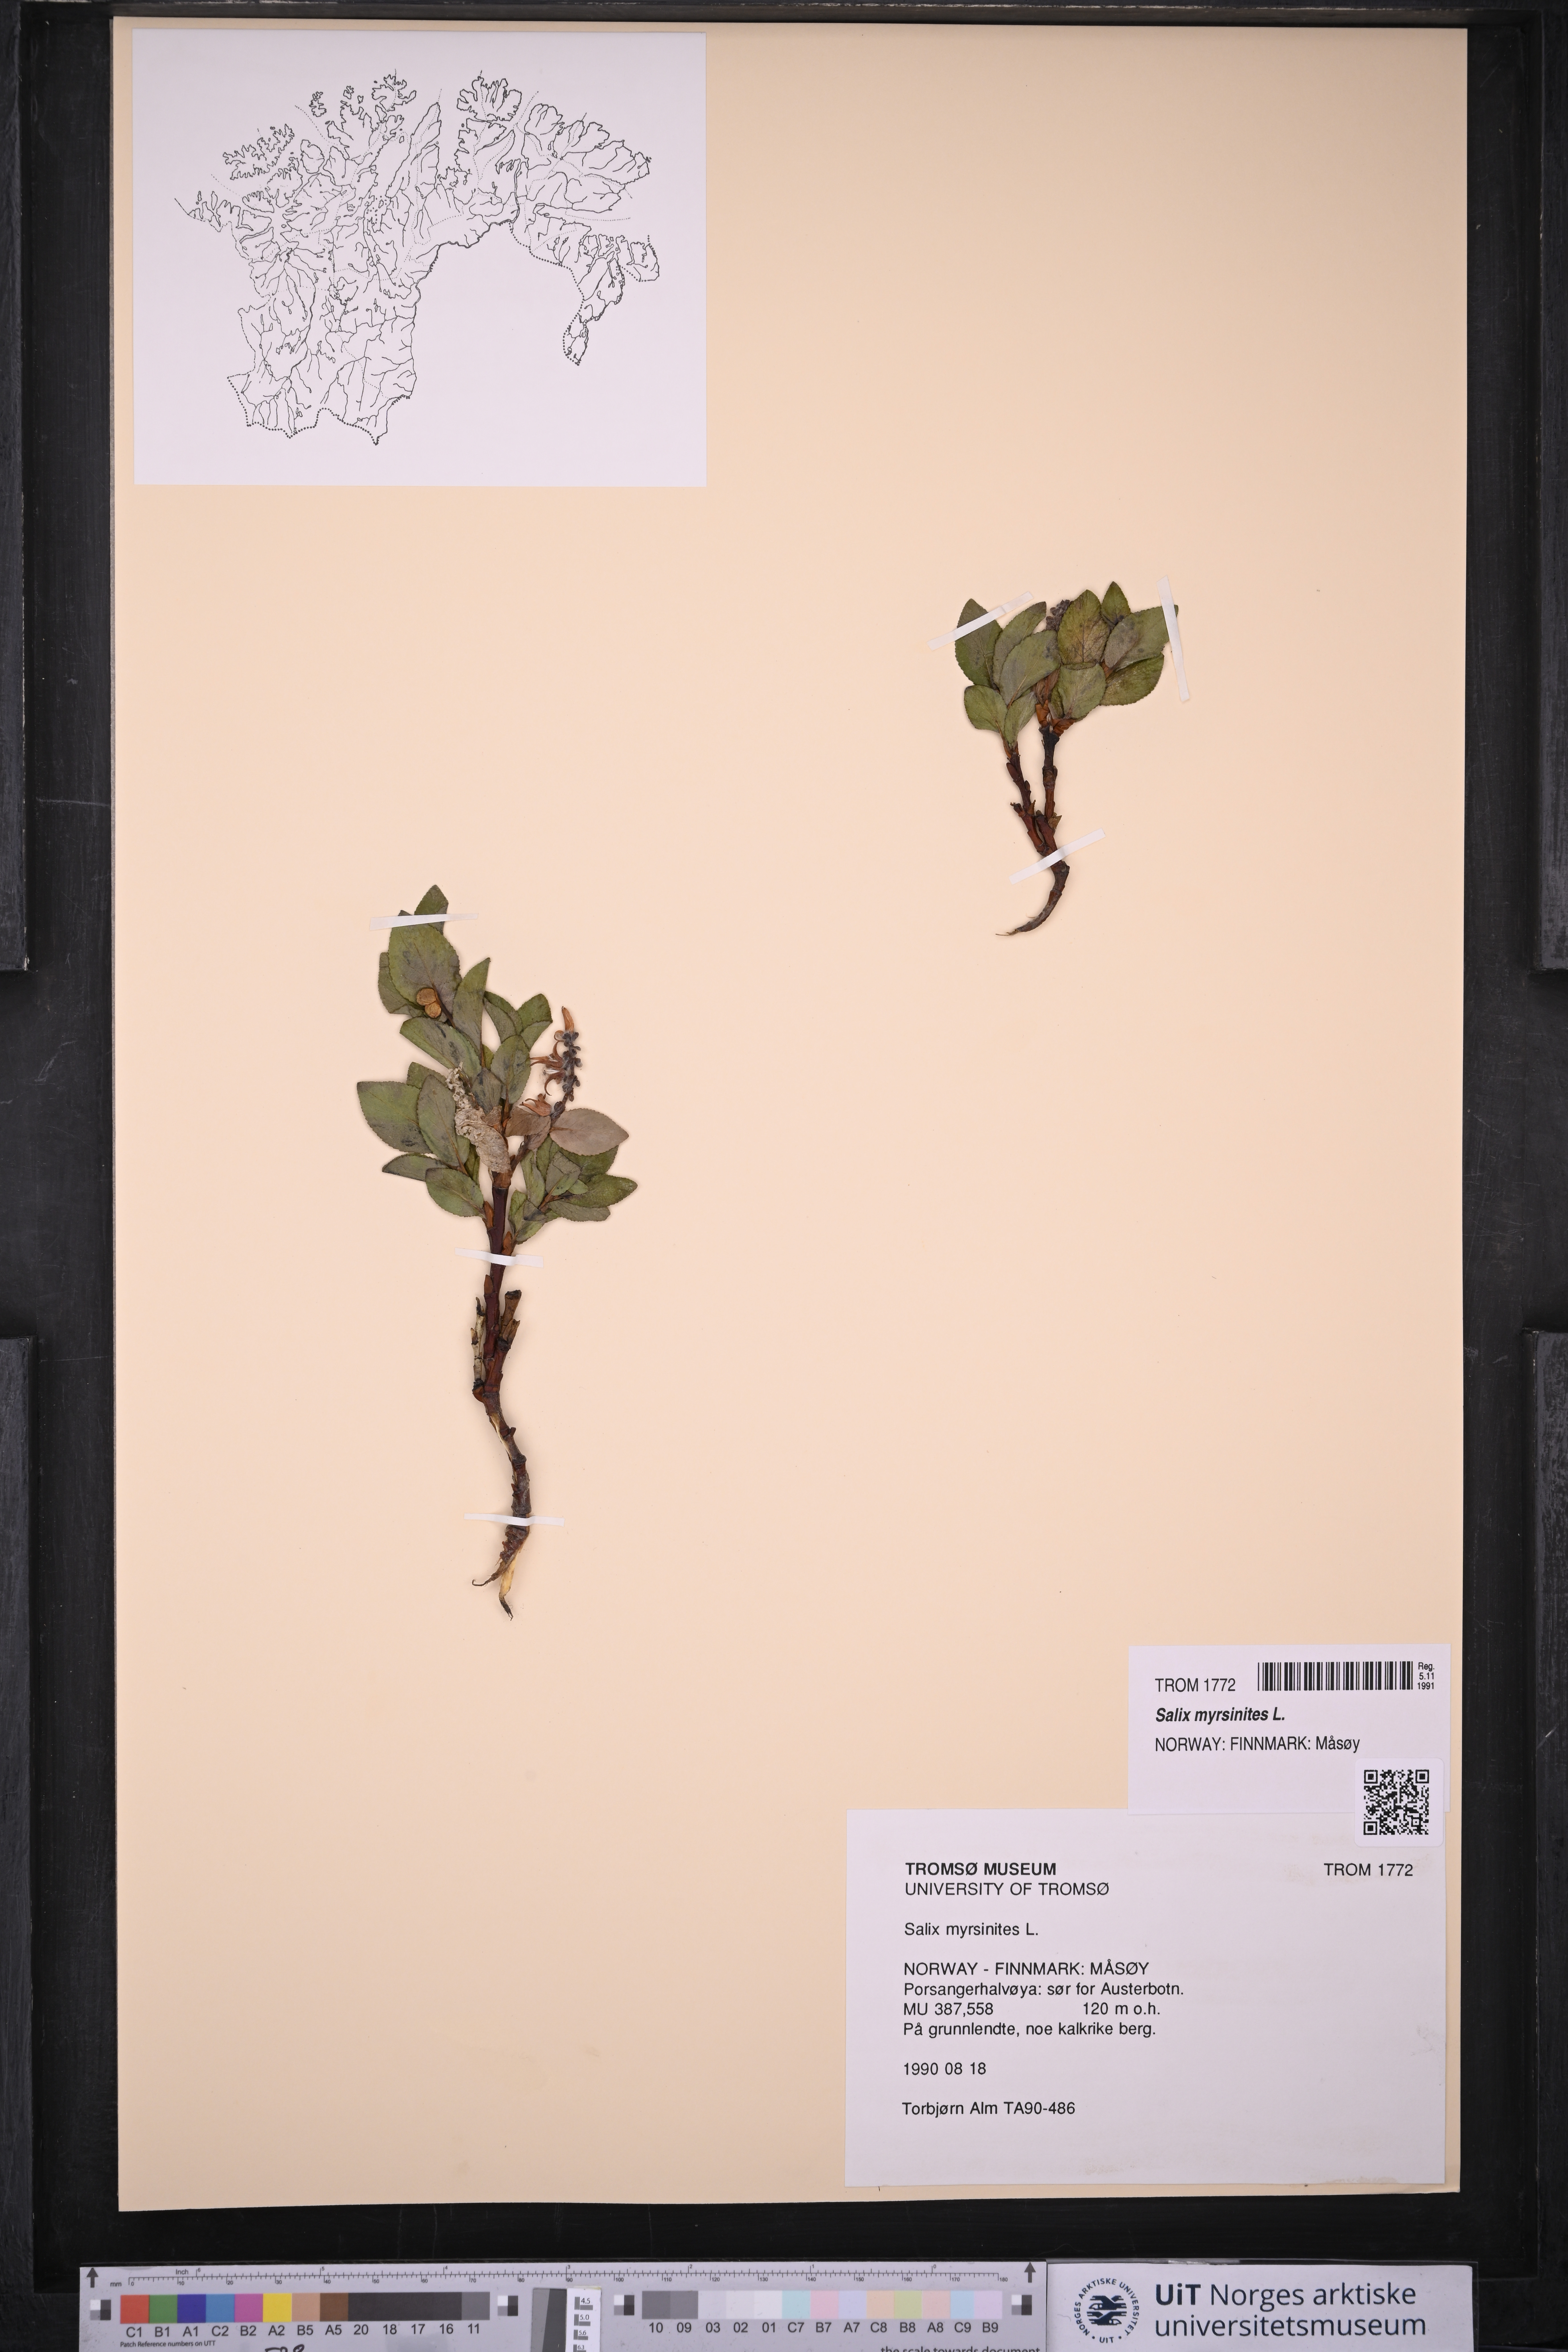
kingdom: Plantae
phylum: Tracheophyta
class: Magnoliopsida
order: Malpighiales
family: Salicaceae
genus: Salix
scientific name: Salix myrsinites
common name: Myrtle willow
